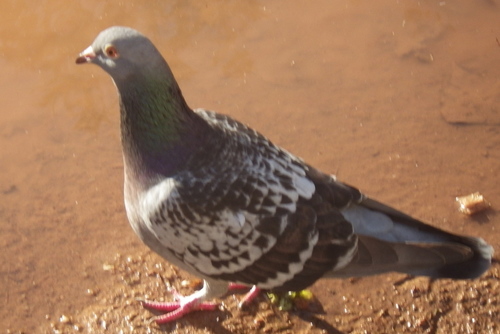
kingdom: Animalia
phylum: Chordata
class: Aves
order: Columbiformes
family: Columbidae
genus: Columba
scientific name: Columba livia
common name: Rock pigeon
